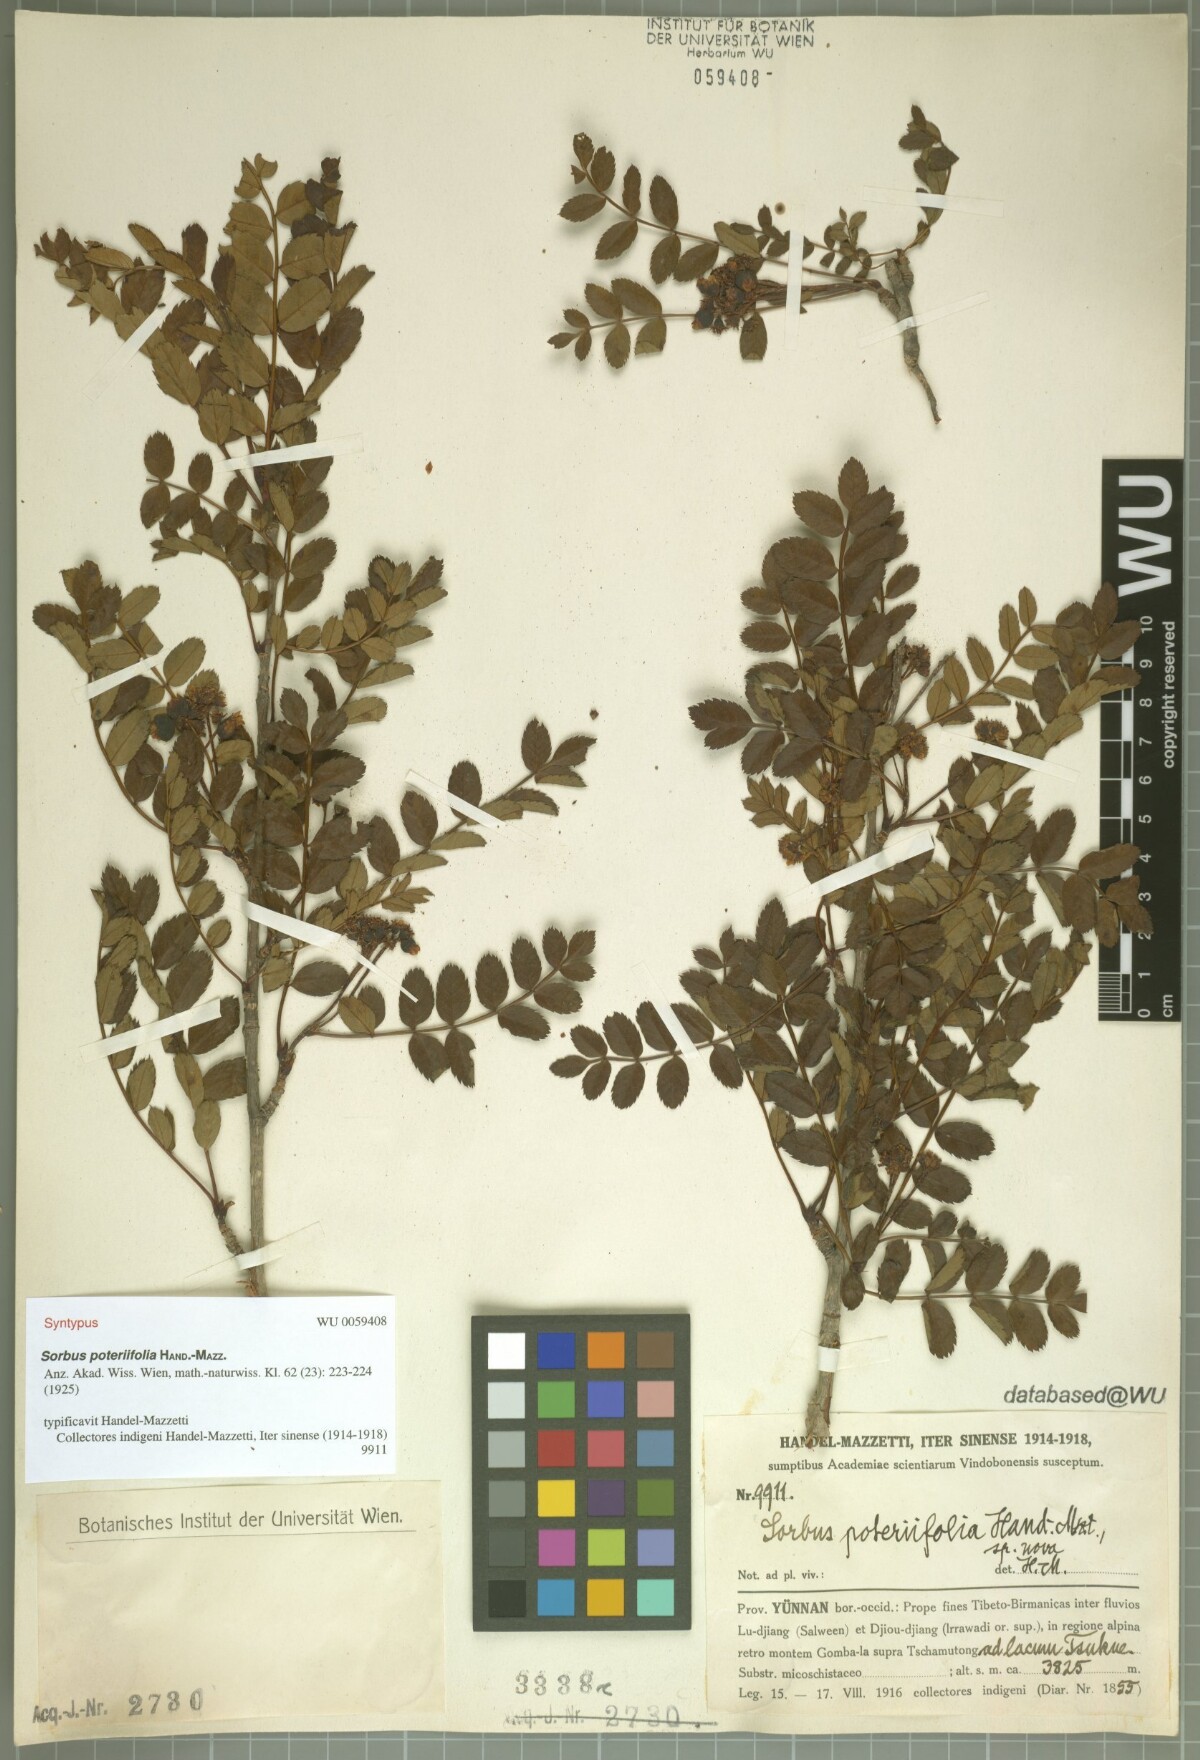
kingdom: Plantae
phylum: Tracheophyta
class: Magnoliopsida
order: Rosales
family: Rosaceae
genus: Sorbus
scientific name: Sorbus poteriifolia
